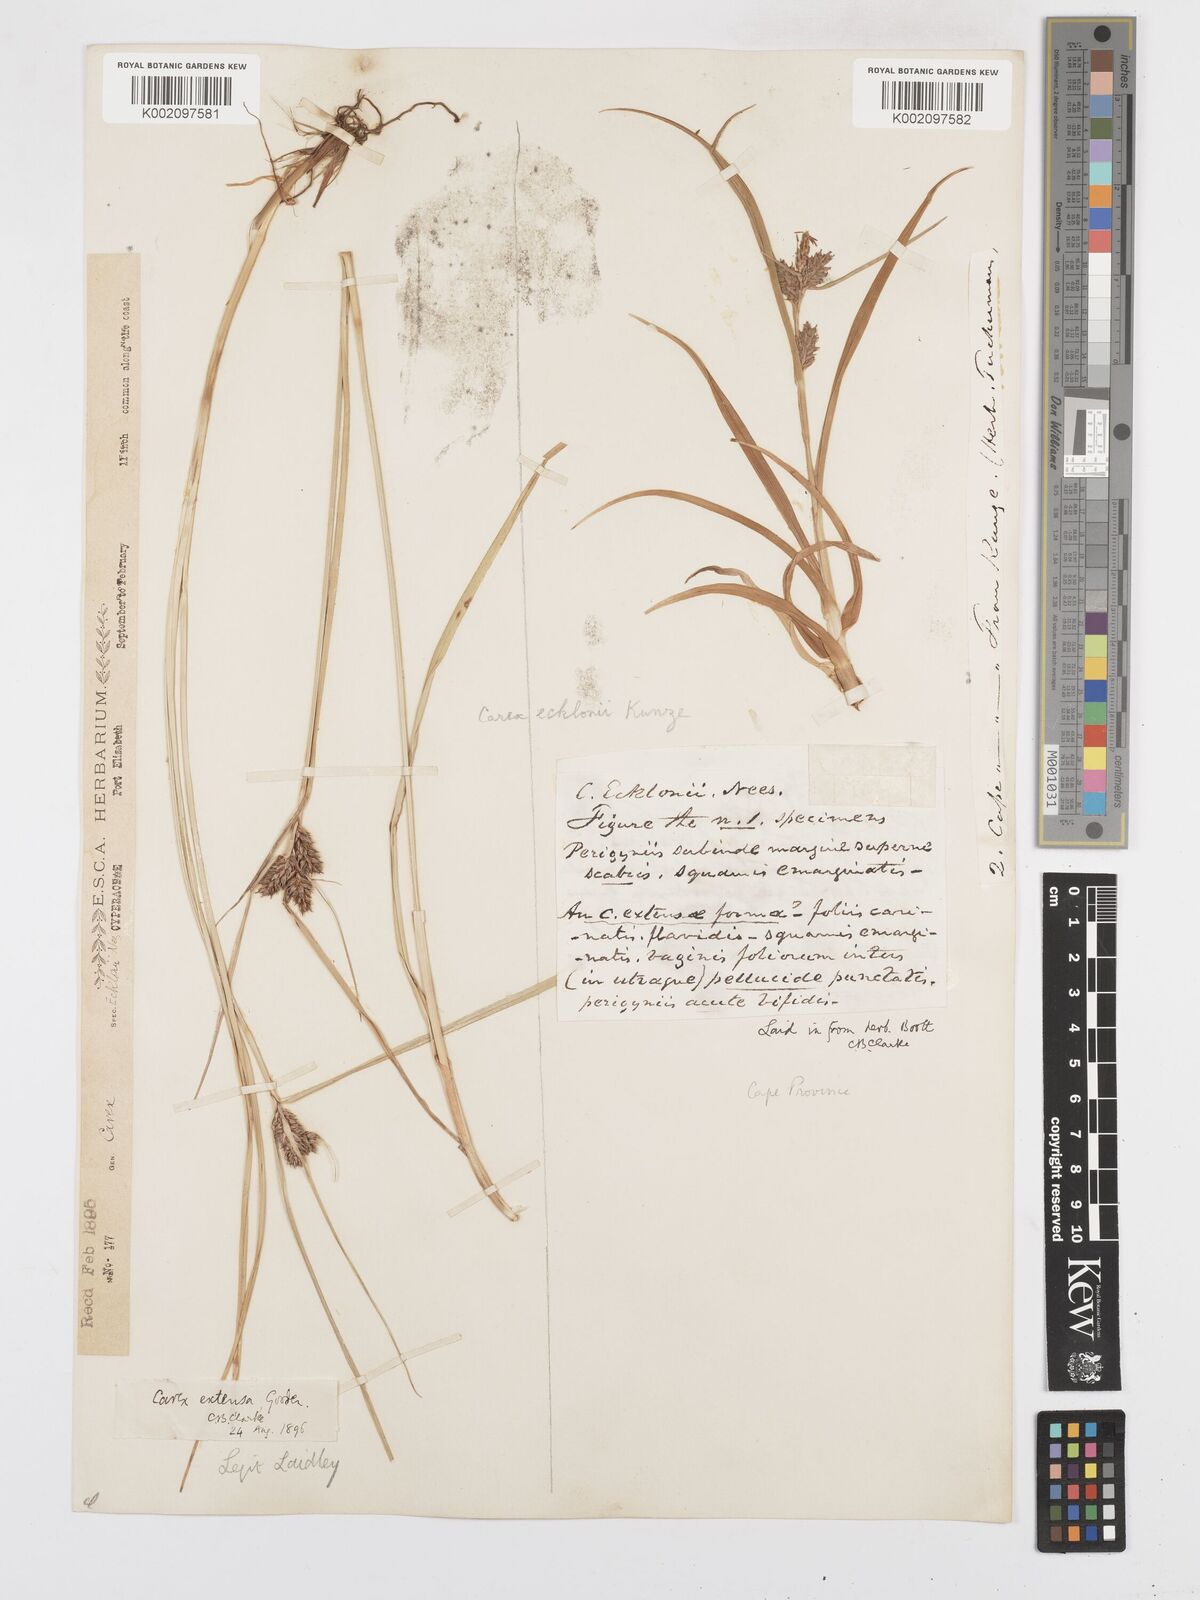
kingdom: Plantae
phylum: Tracheophyta
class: Liliopsida
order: Poales
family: Cyperaceae
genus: Carex
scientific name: Carex extensa
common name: Long-bracted sedge
